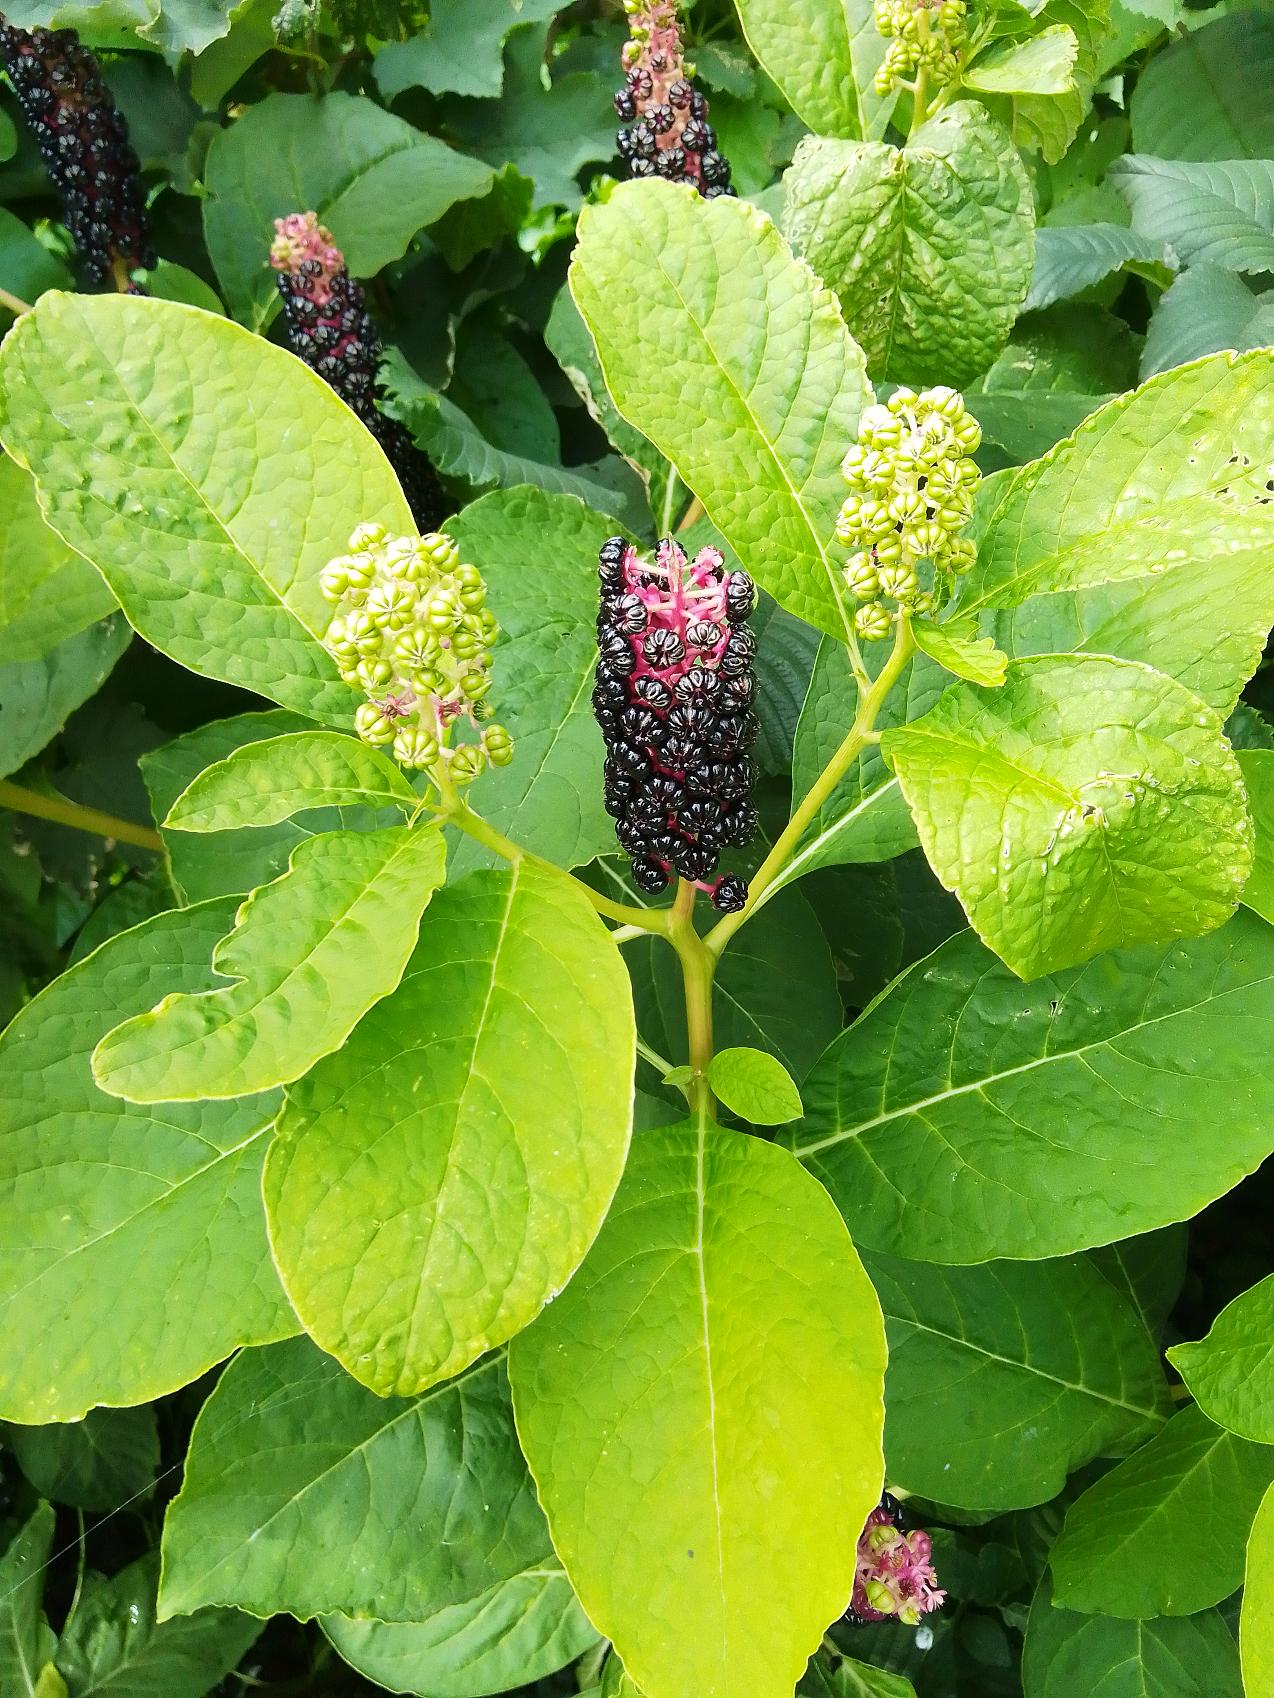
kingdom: Plantae
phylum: Tracheophyta
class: Magnoliopsida
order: Caryophyllales
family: Phytolaccaceae
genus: Phytolacca
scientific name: Phytolacca acinosa
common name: Asiatisk kermesbær
